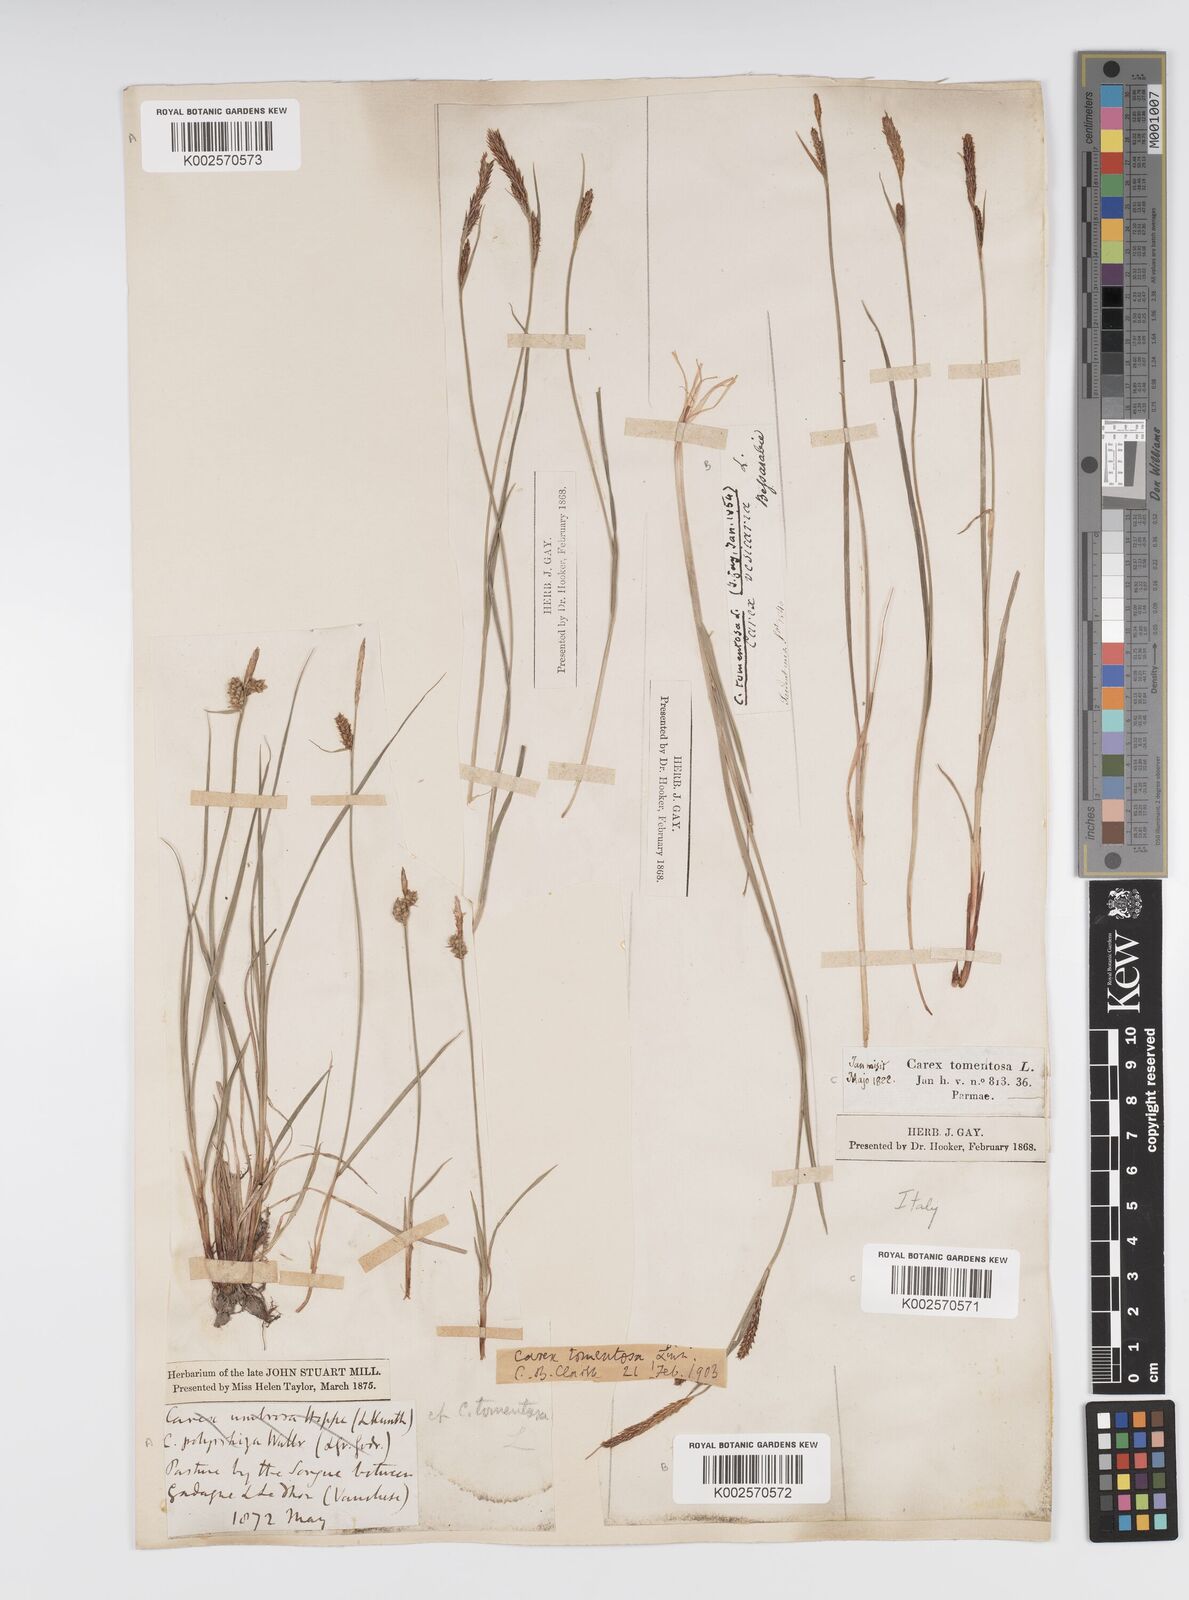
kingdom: Plantae
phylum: Tracheophyta
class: Liliopsida
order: Poales
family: Cyperaceae
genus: Carex
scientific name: Carex montana
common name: Soft-leaved sedge
